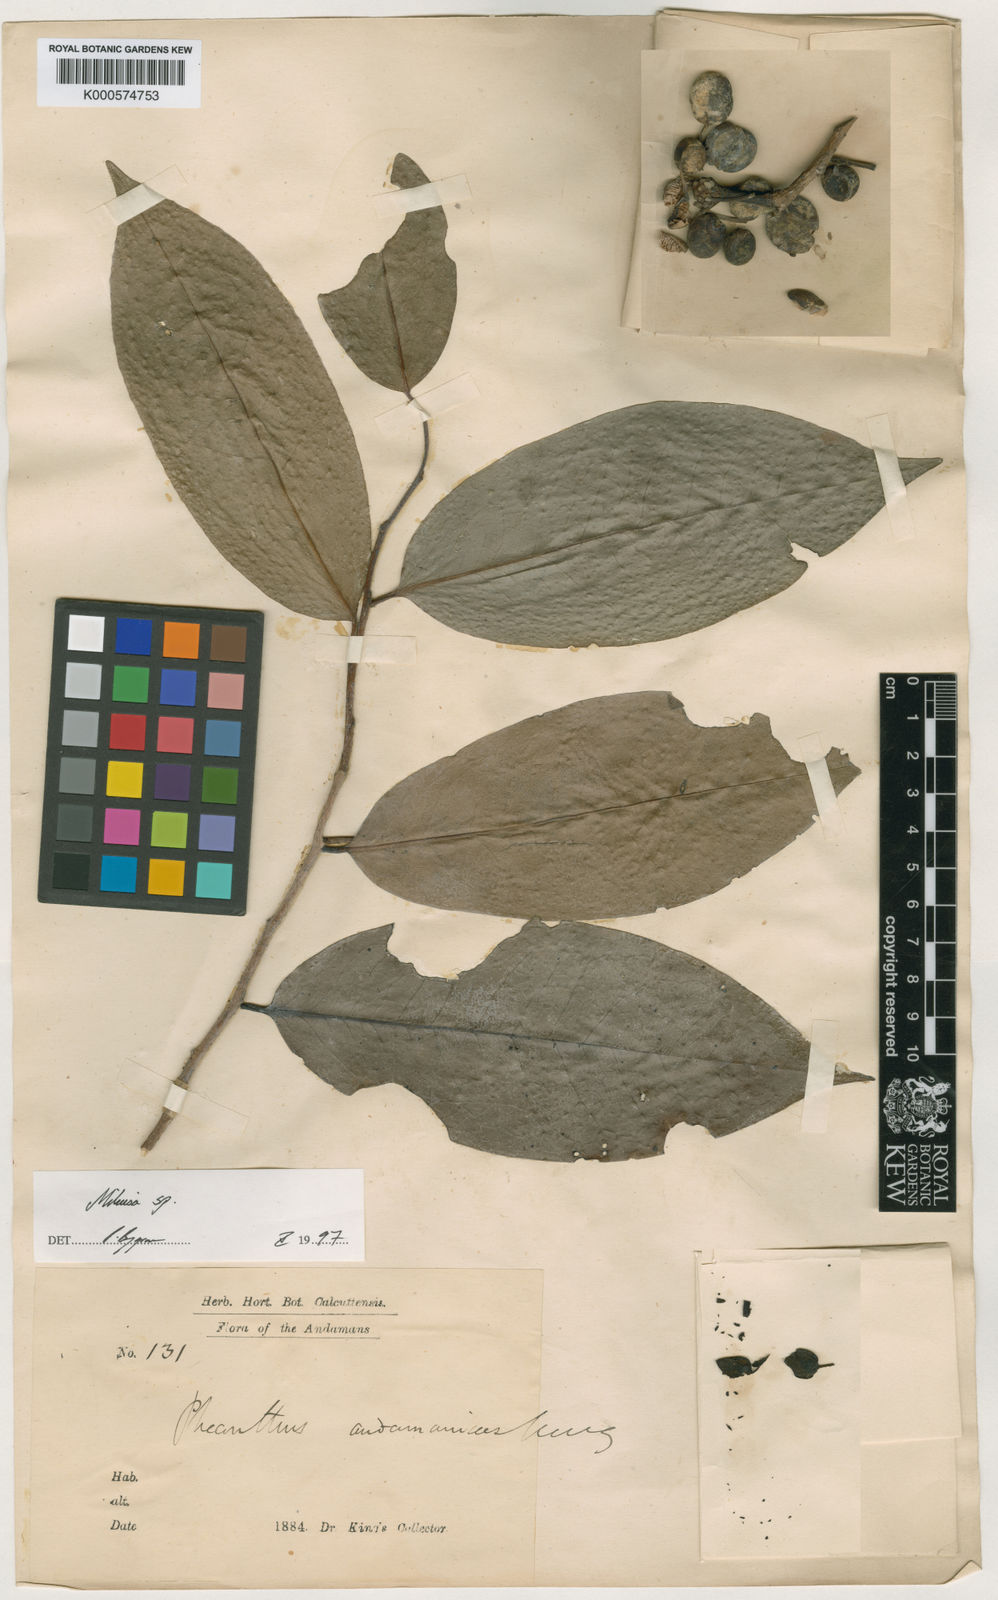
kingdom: Plantae
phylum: Tracheophyta
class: Magnoliopsida
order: Magnoliales
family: Annonaceae
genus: Miliusa
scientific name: Miliusa andamanica
